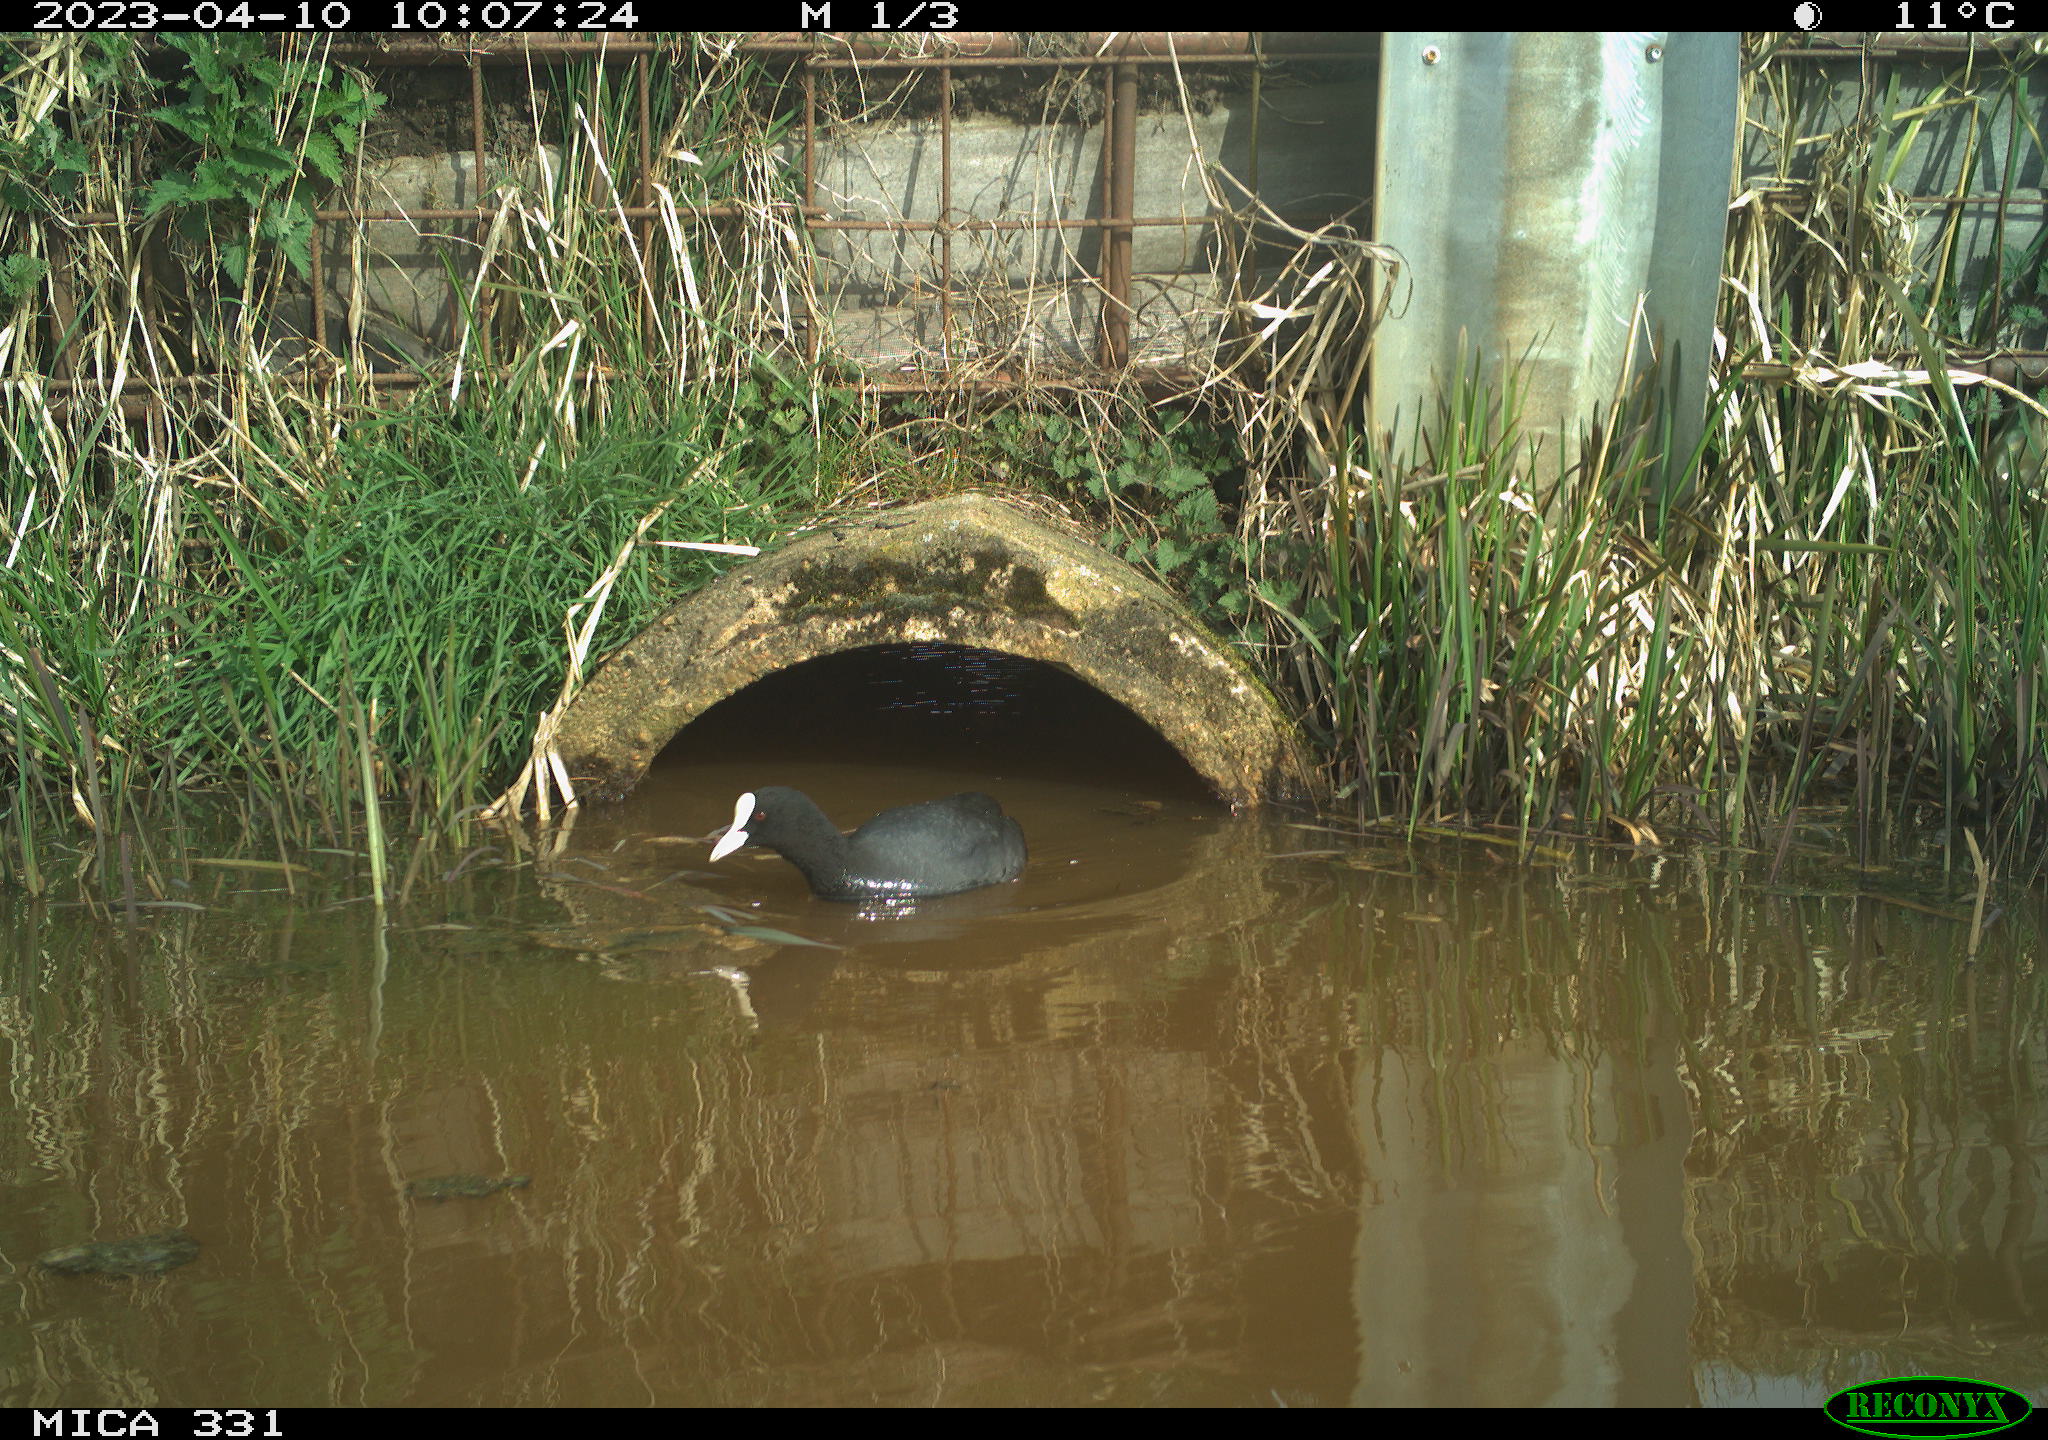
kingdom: Animalia
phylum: Chordata
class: Aves
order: Gruiformes
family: Rallidae
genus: Gallinula
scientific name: Gallinula chloropus
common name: Common moorhen
